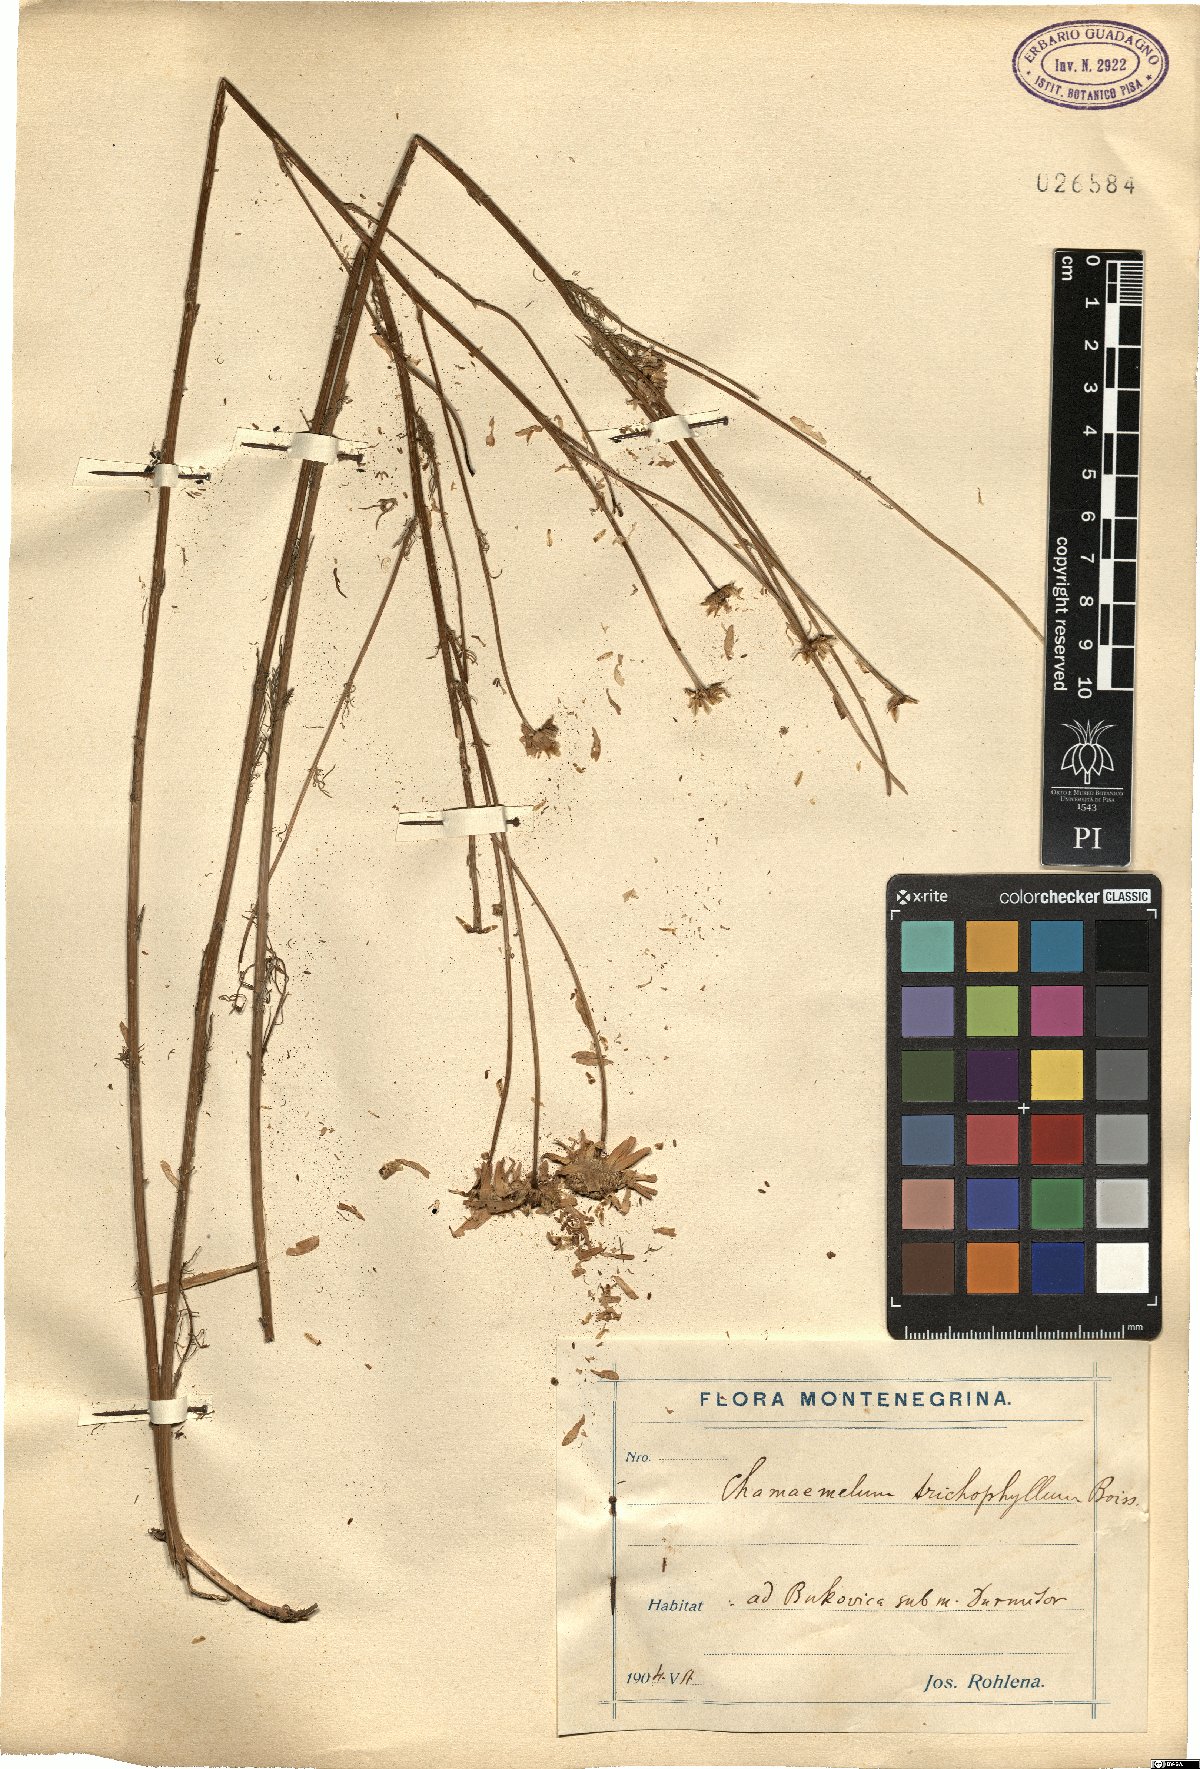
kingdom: Plantae
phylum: Tracheophyta
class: Magnoliopsida
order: Asterales
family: Asteraceae
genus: Tripleurospermum
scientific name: Tripleurospermum tenuifolium
